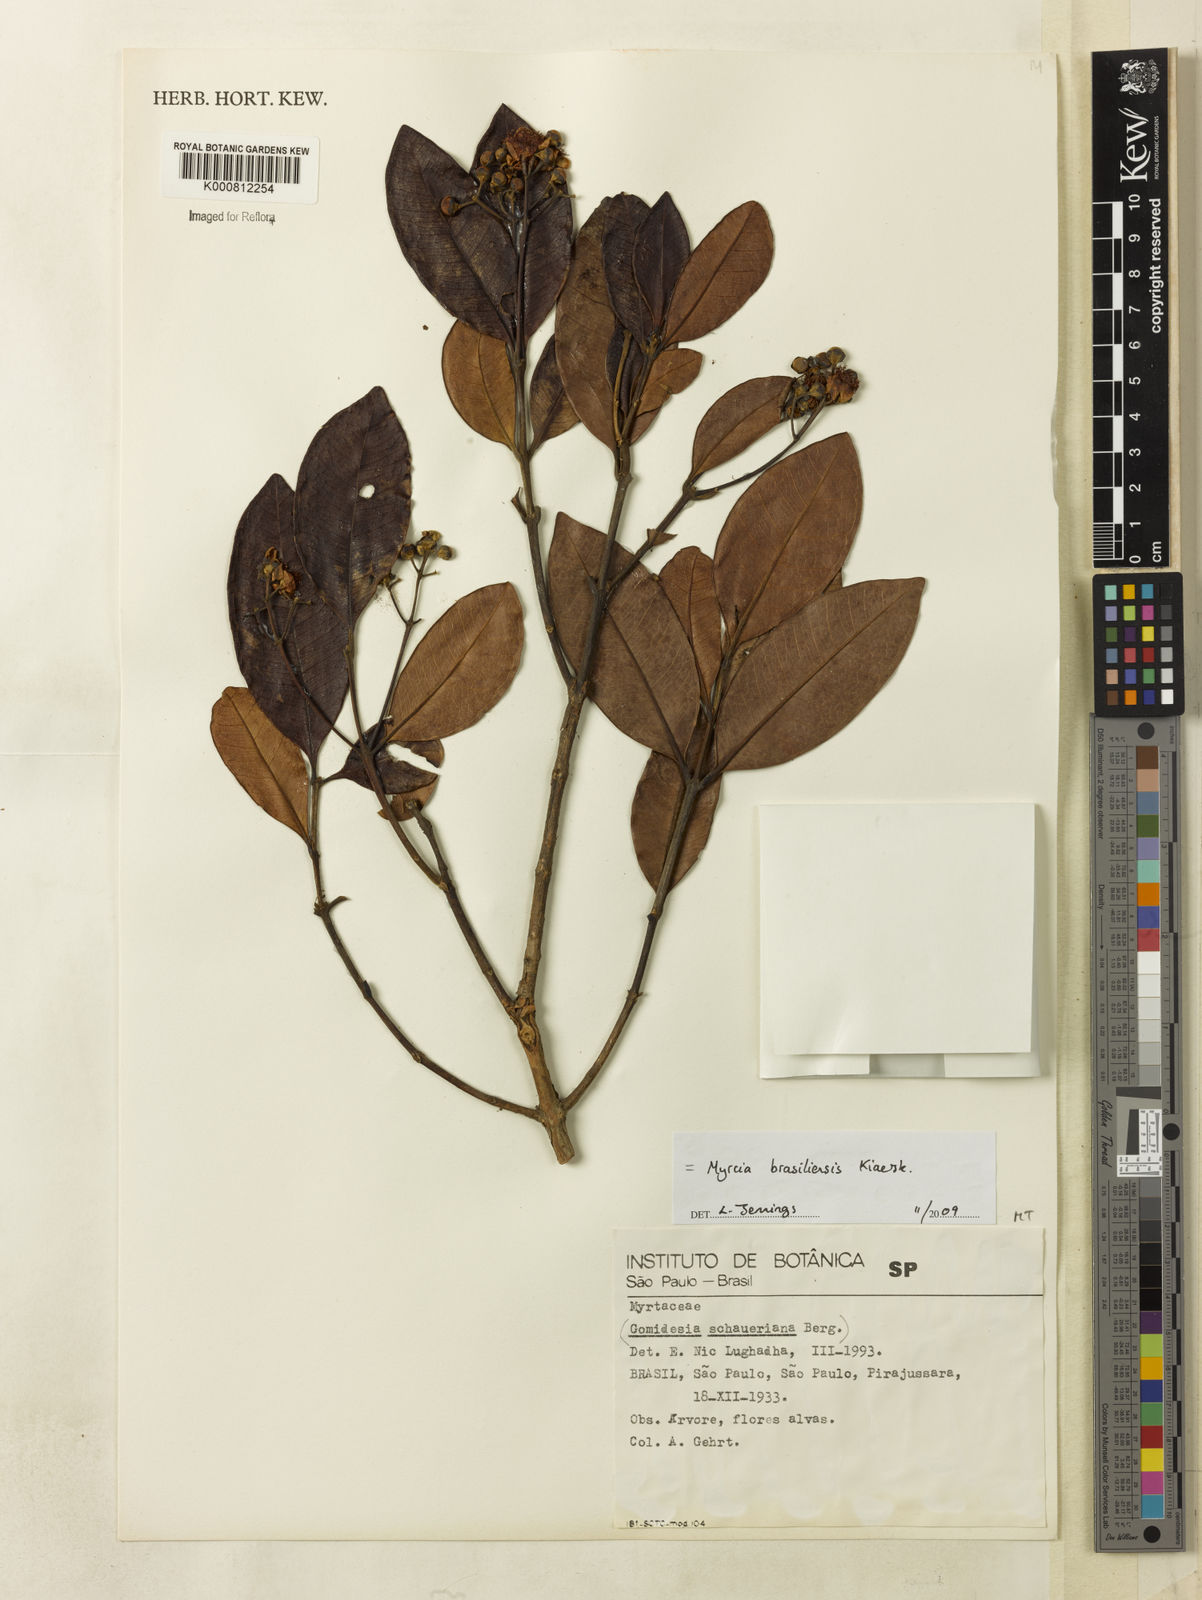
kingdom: Plantae
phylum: Tracheophyta
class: Magnoliopsida
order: Myrtales
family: Myrtaceae
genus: Myrcia
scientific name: Myrcia freyreissiana
